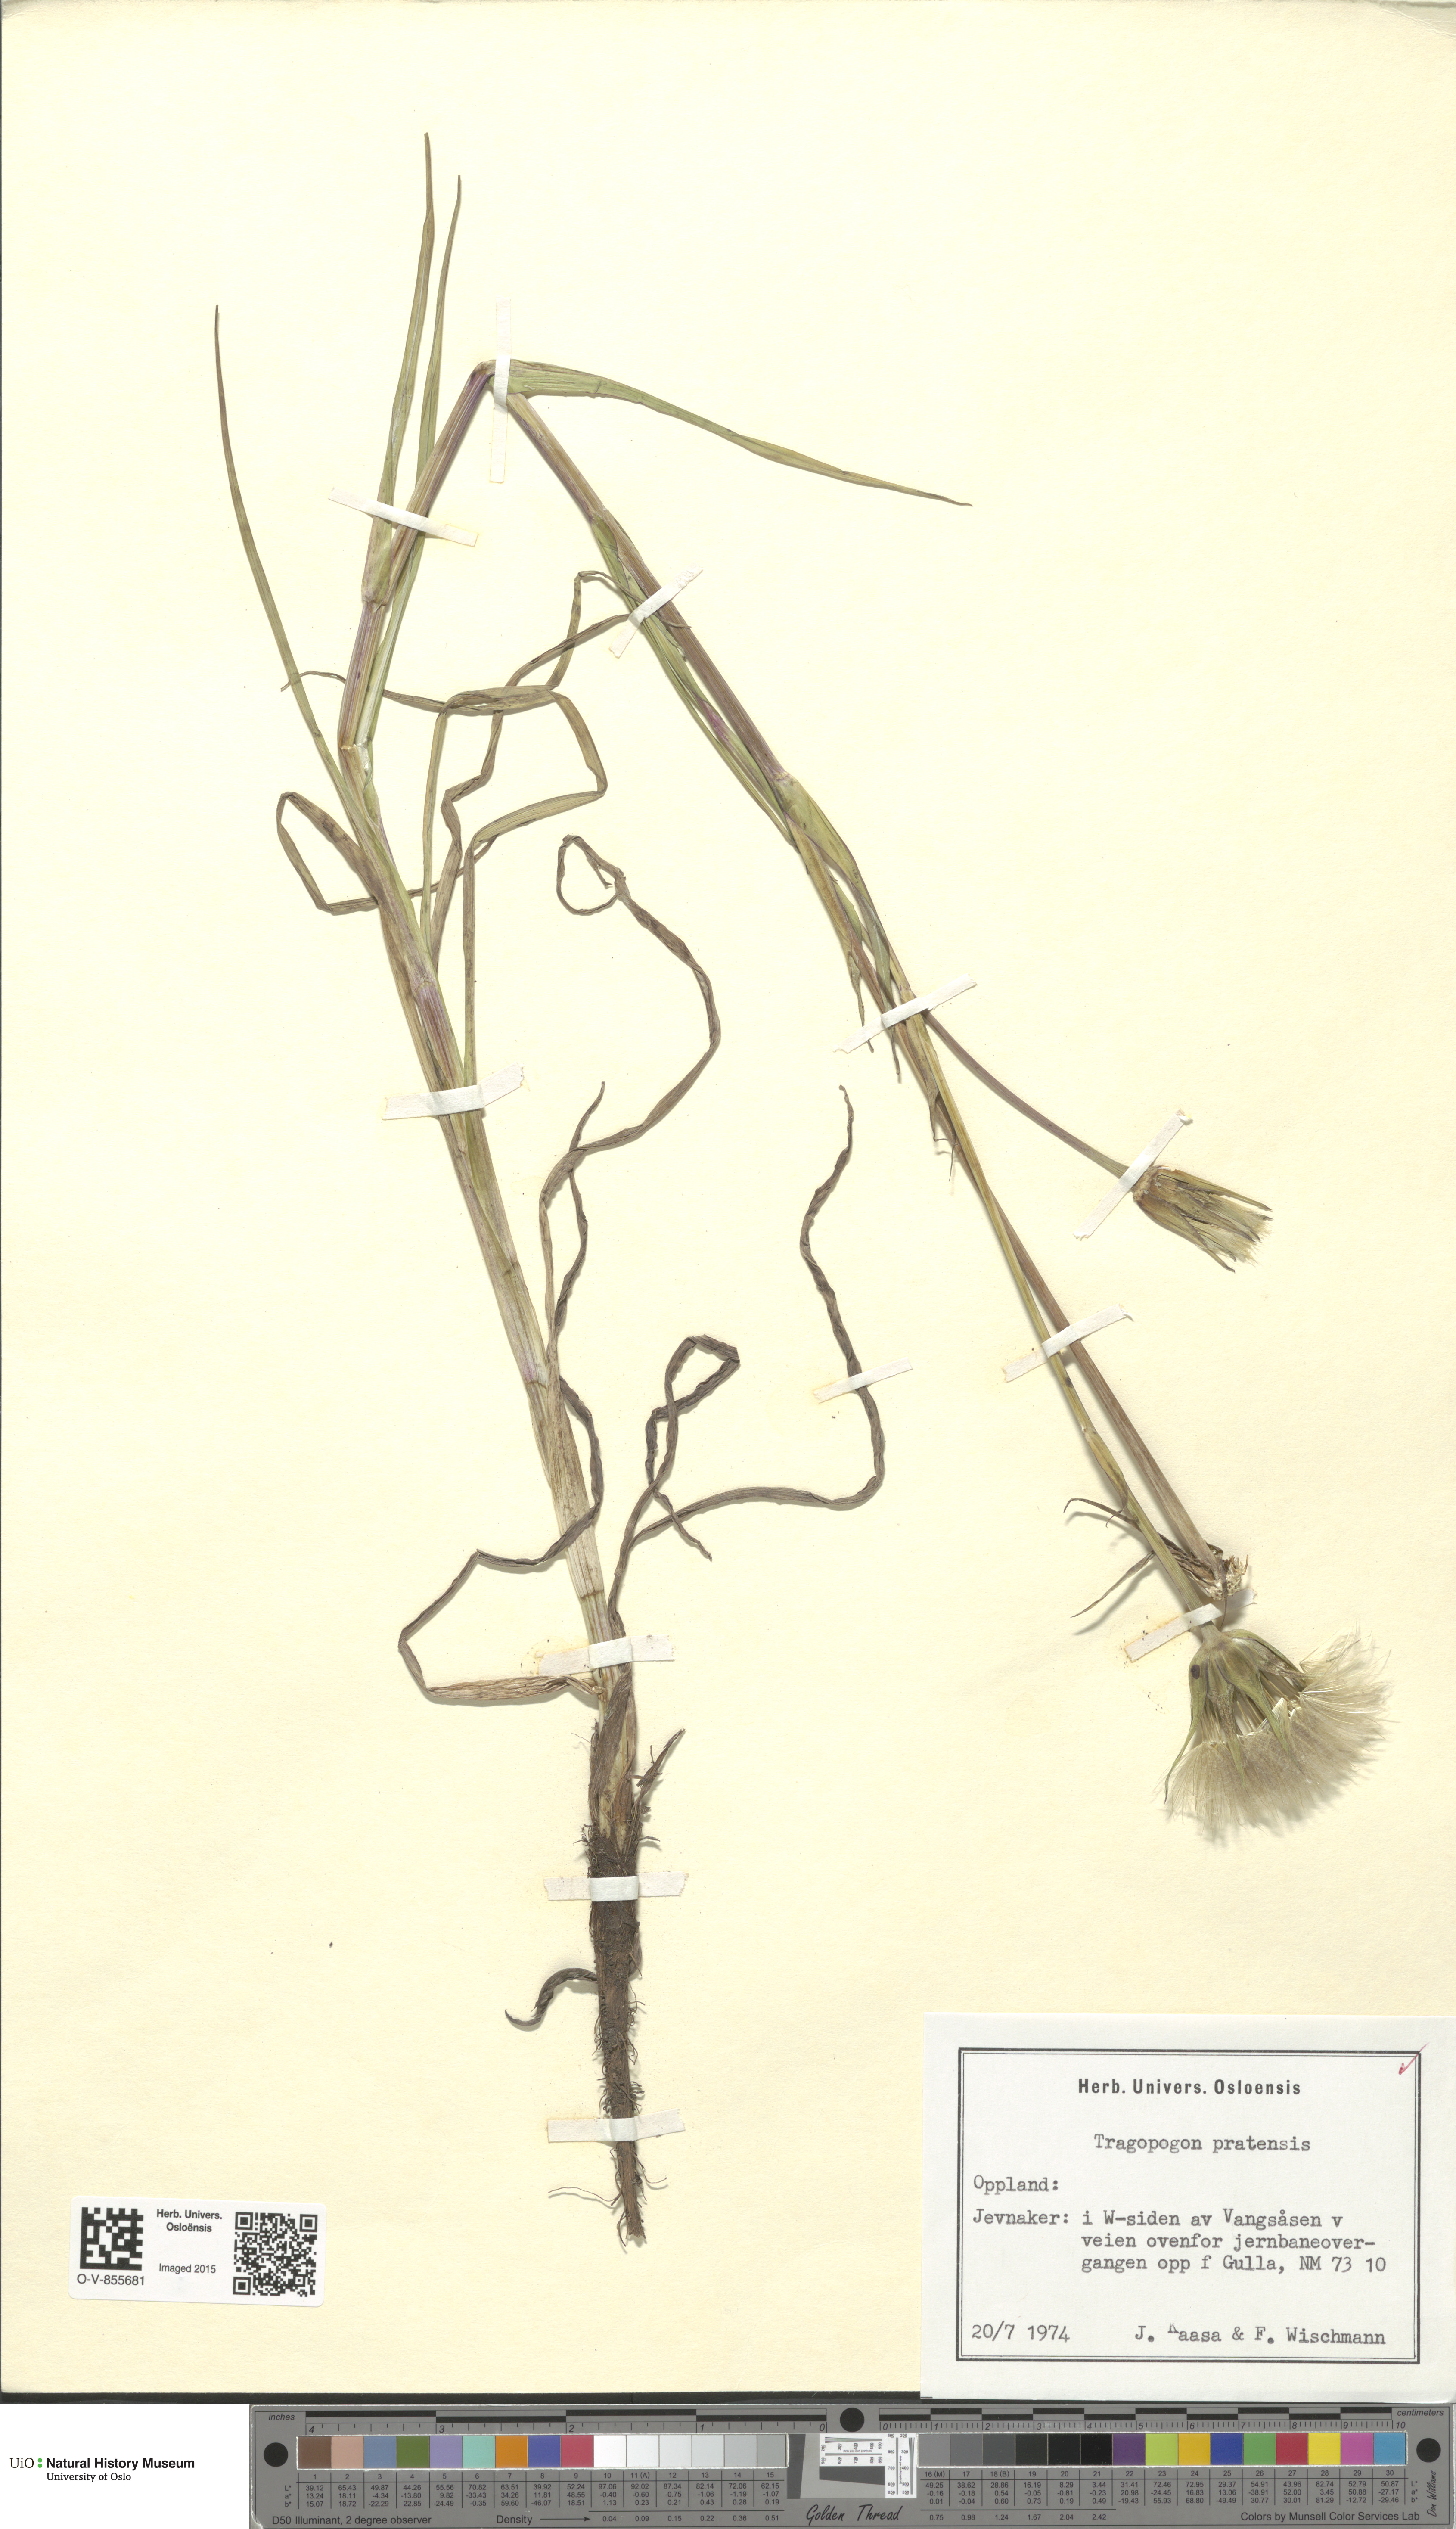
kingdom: Plantae
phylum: Tracheophyta
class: Magnoliopsida
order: Asterales
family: Asteraceae
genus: Tragopogon
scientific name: Tragopogon pratensis
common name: Goat's-beard
